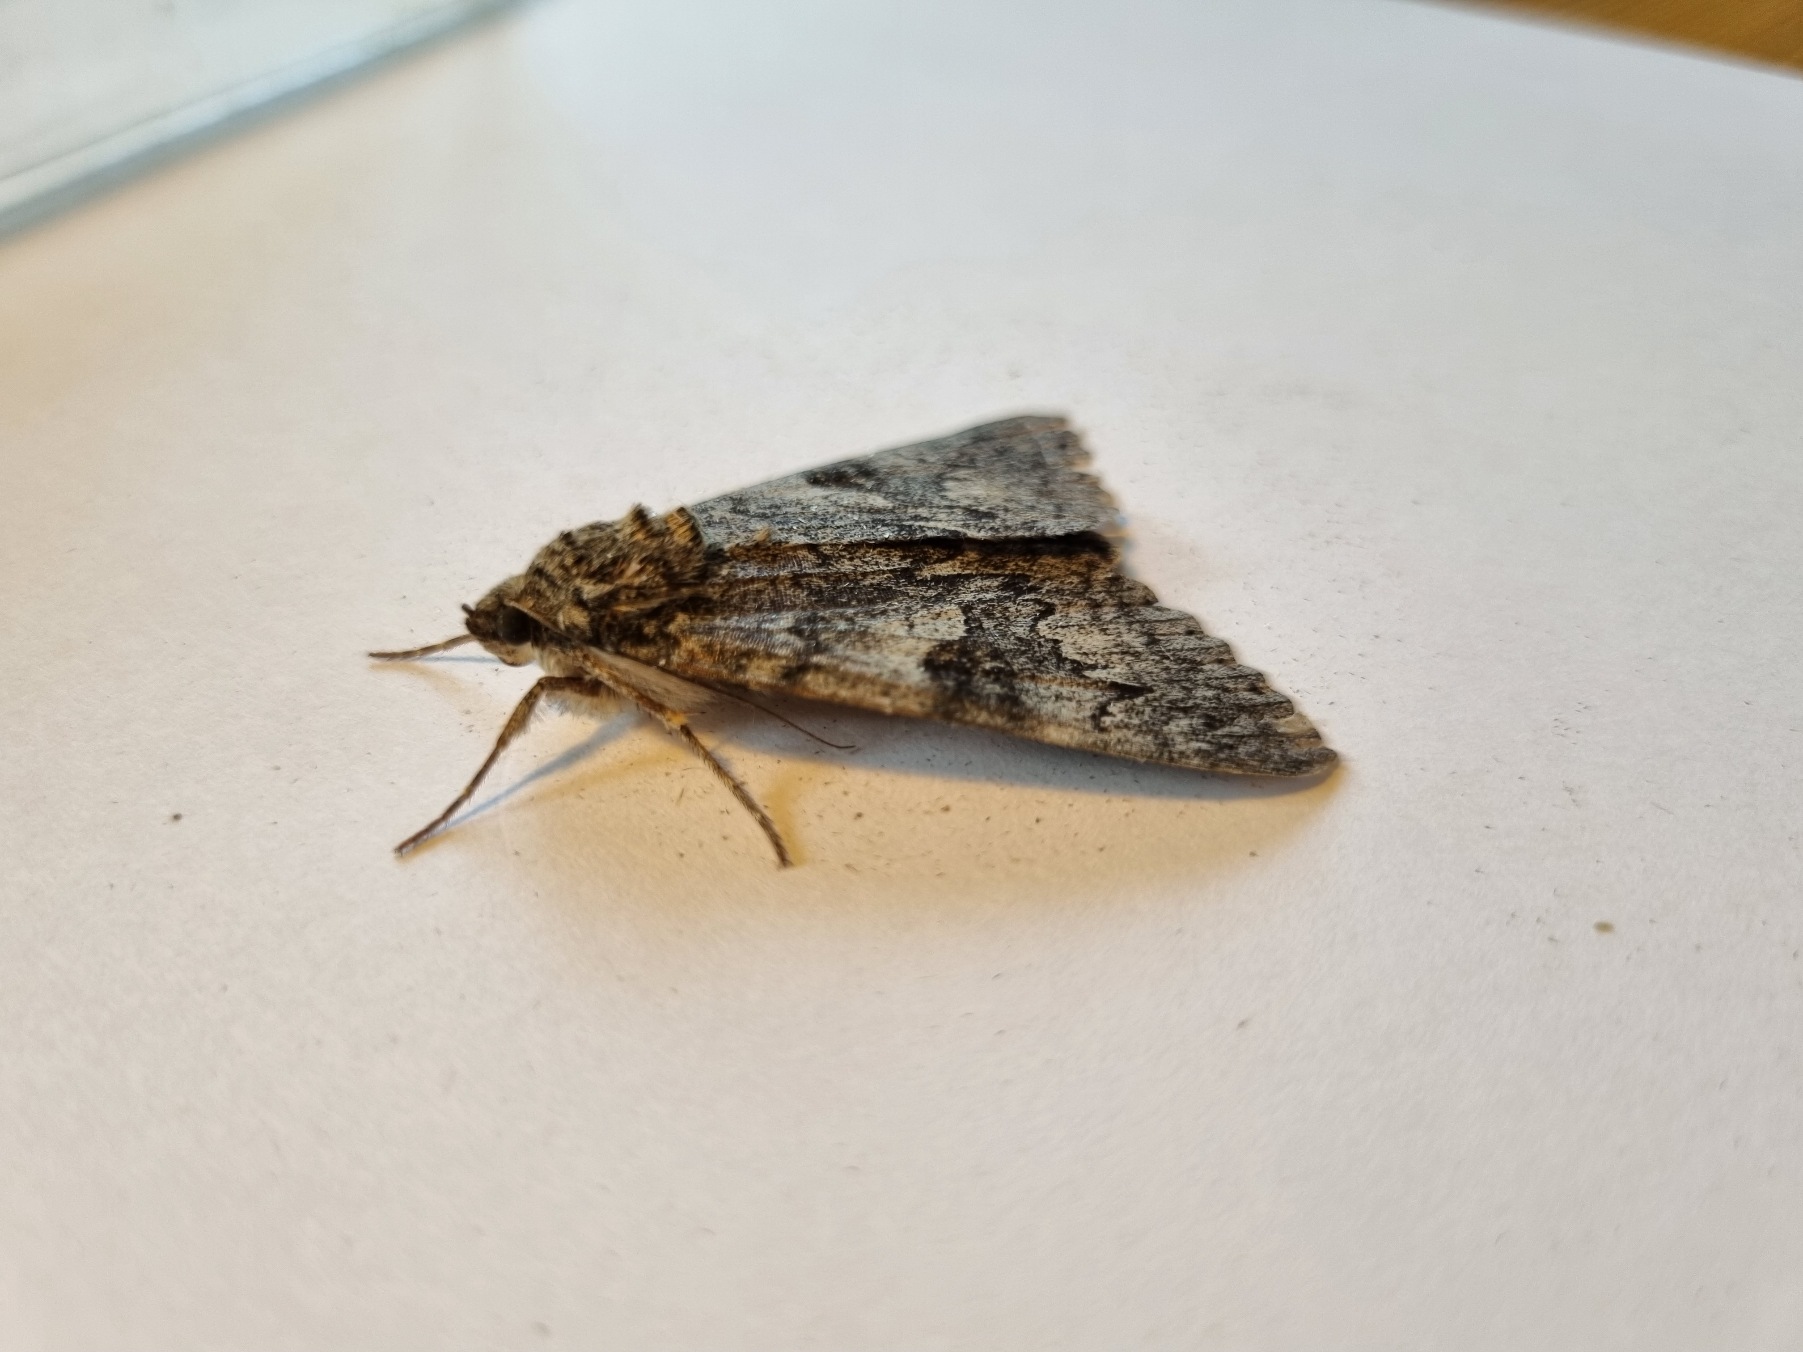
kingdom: Animalia
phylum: Arthropoda
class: Insecta
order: Lepidoptera
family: Erebidae
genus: Catocala
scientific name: Catocala nupta
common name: Rødt ordensbånd
